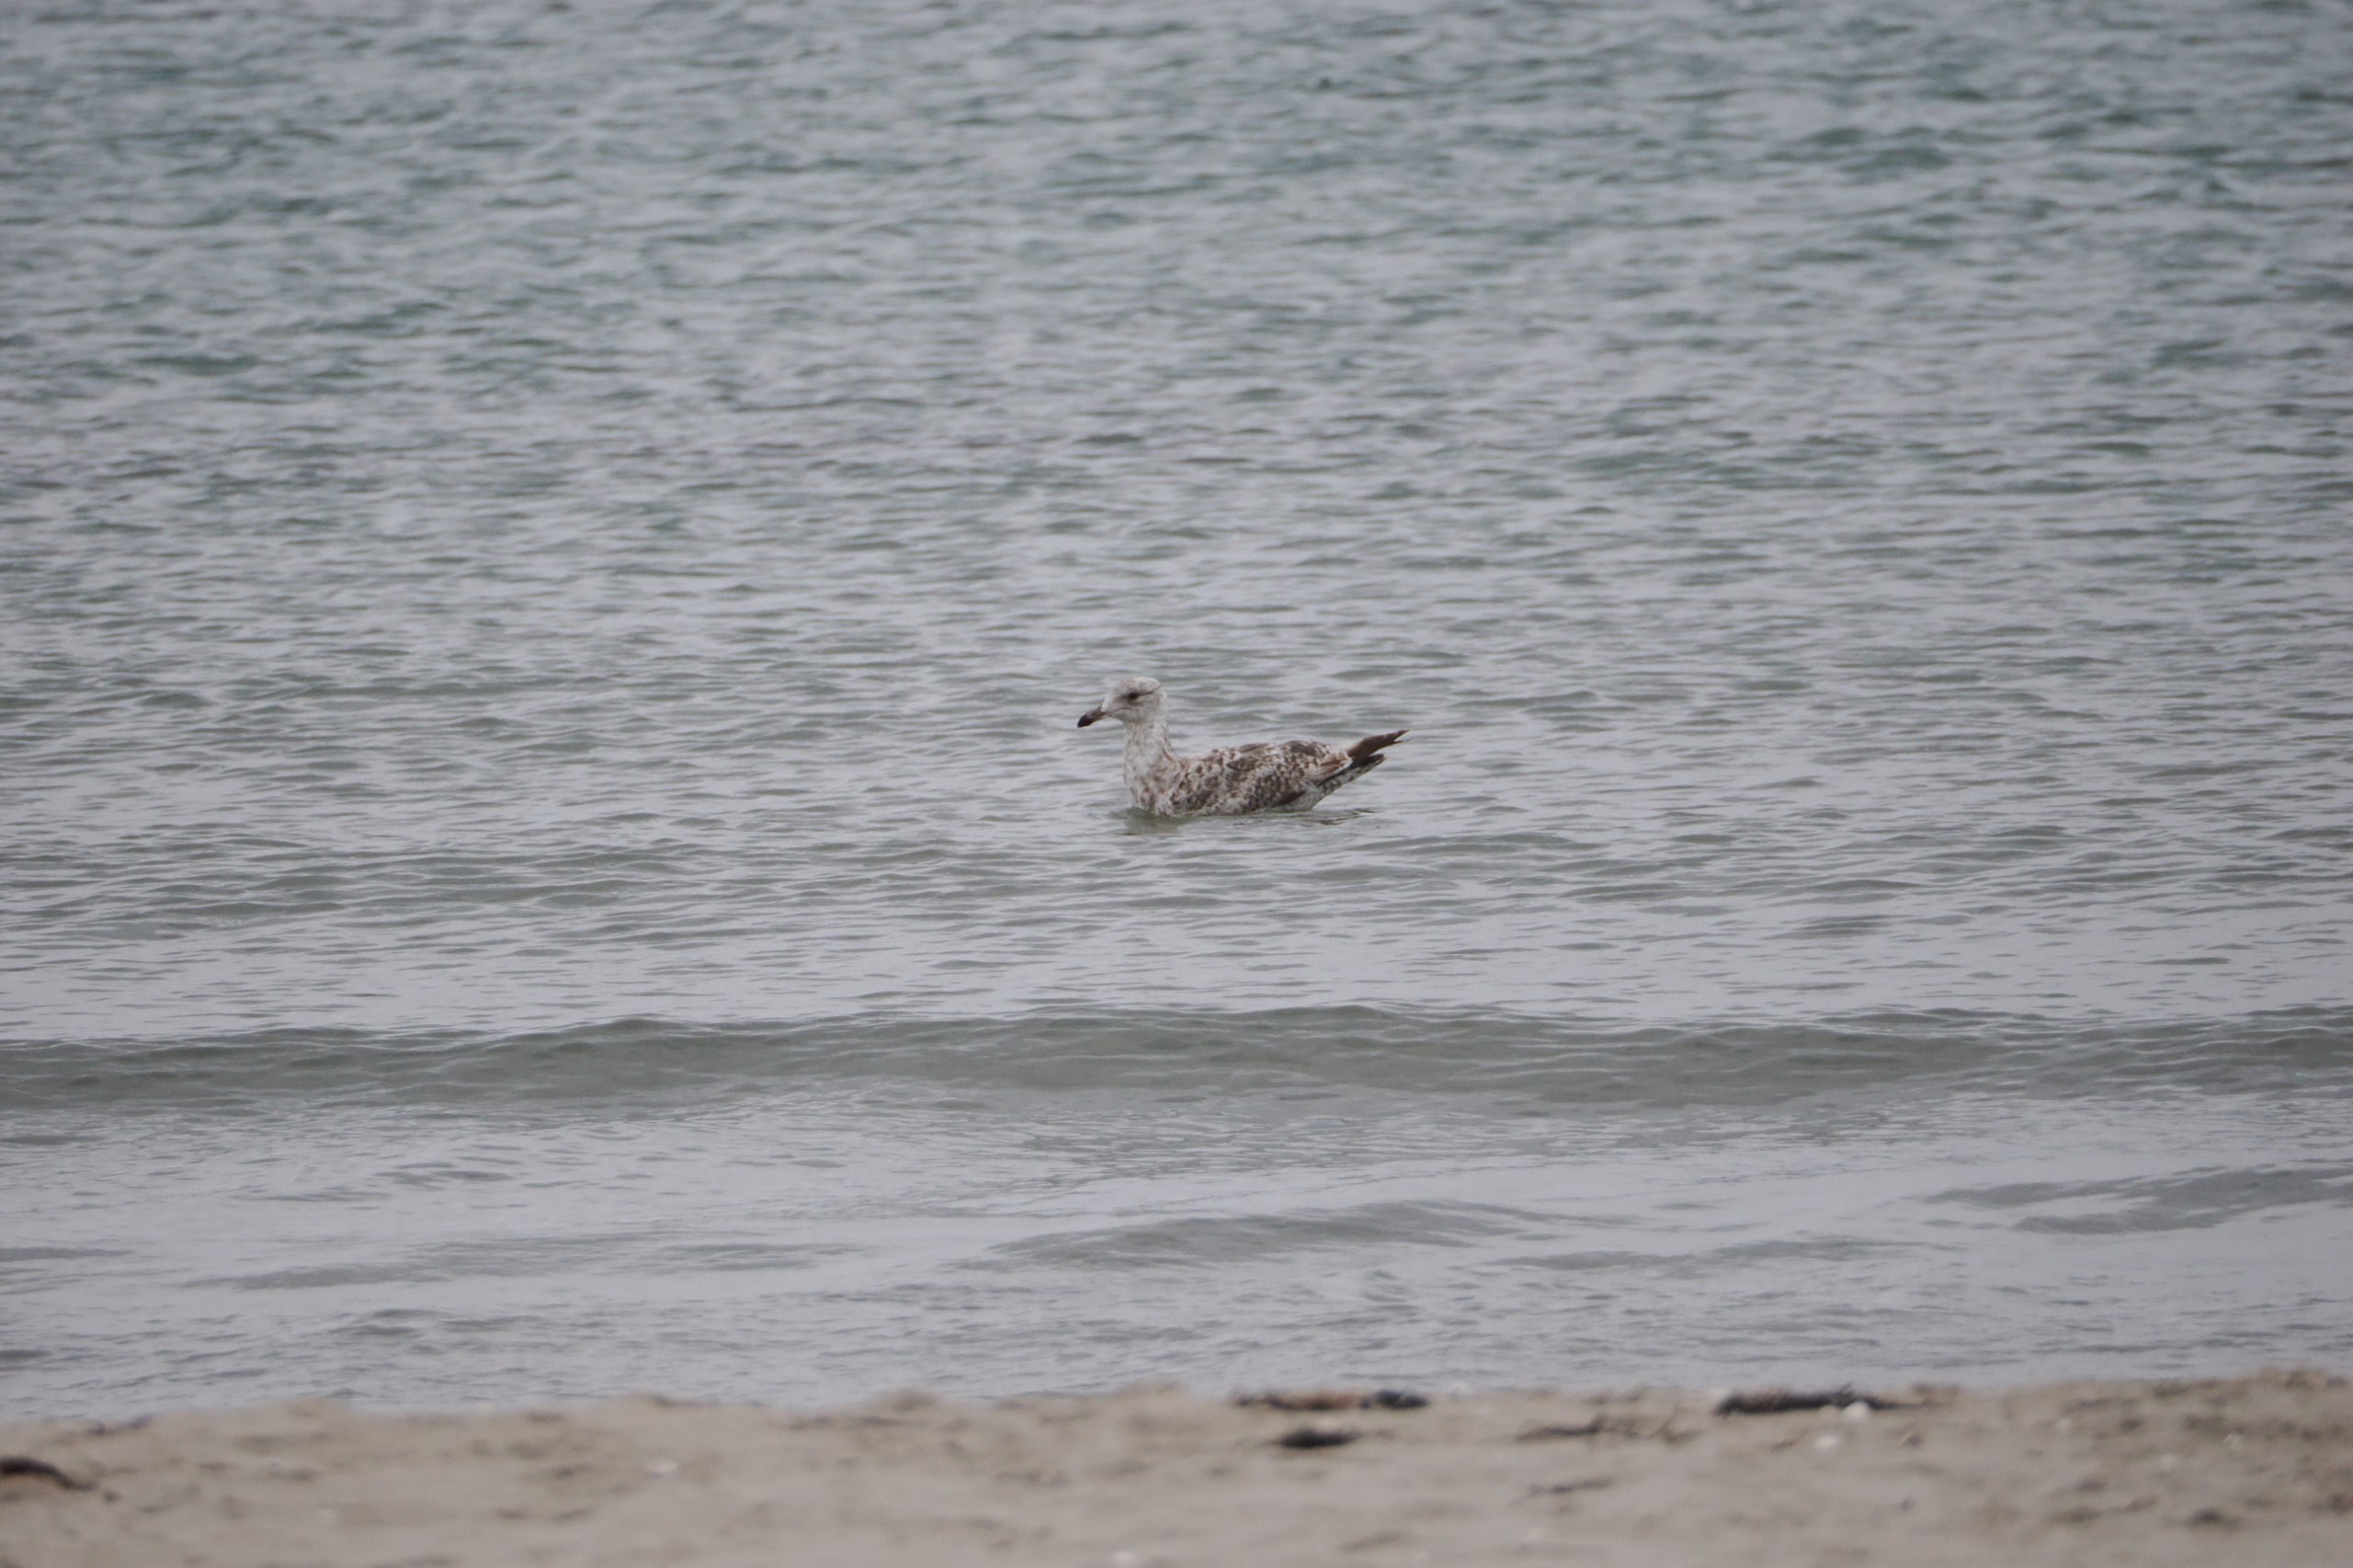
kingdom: Animalia
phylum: Chordata
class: Aves
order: Charadriiformes
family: Laridae
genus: Larus
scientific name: Larus argentatus
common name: Sølvmåge
